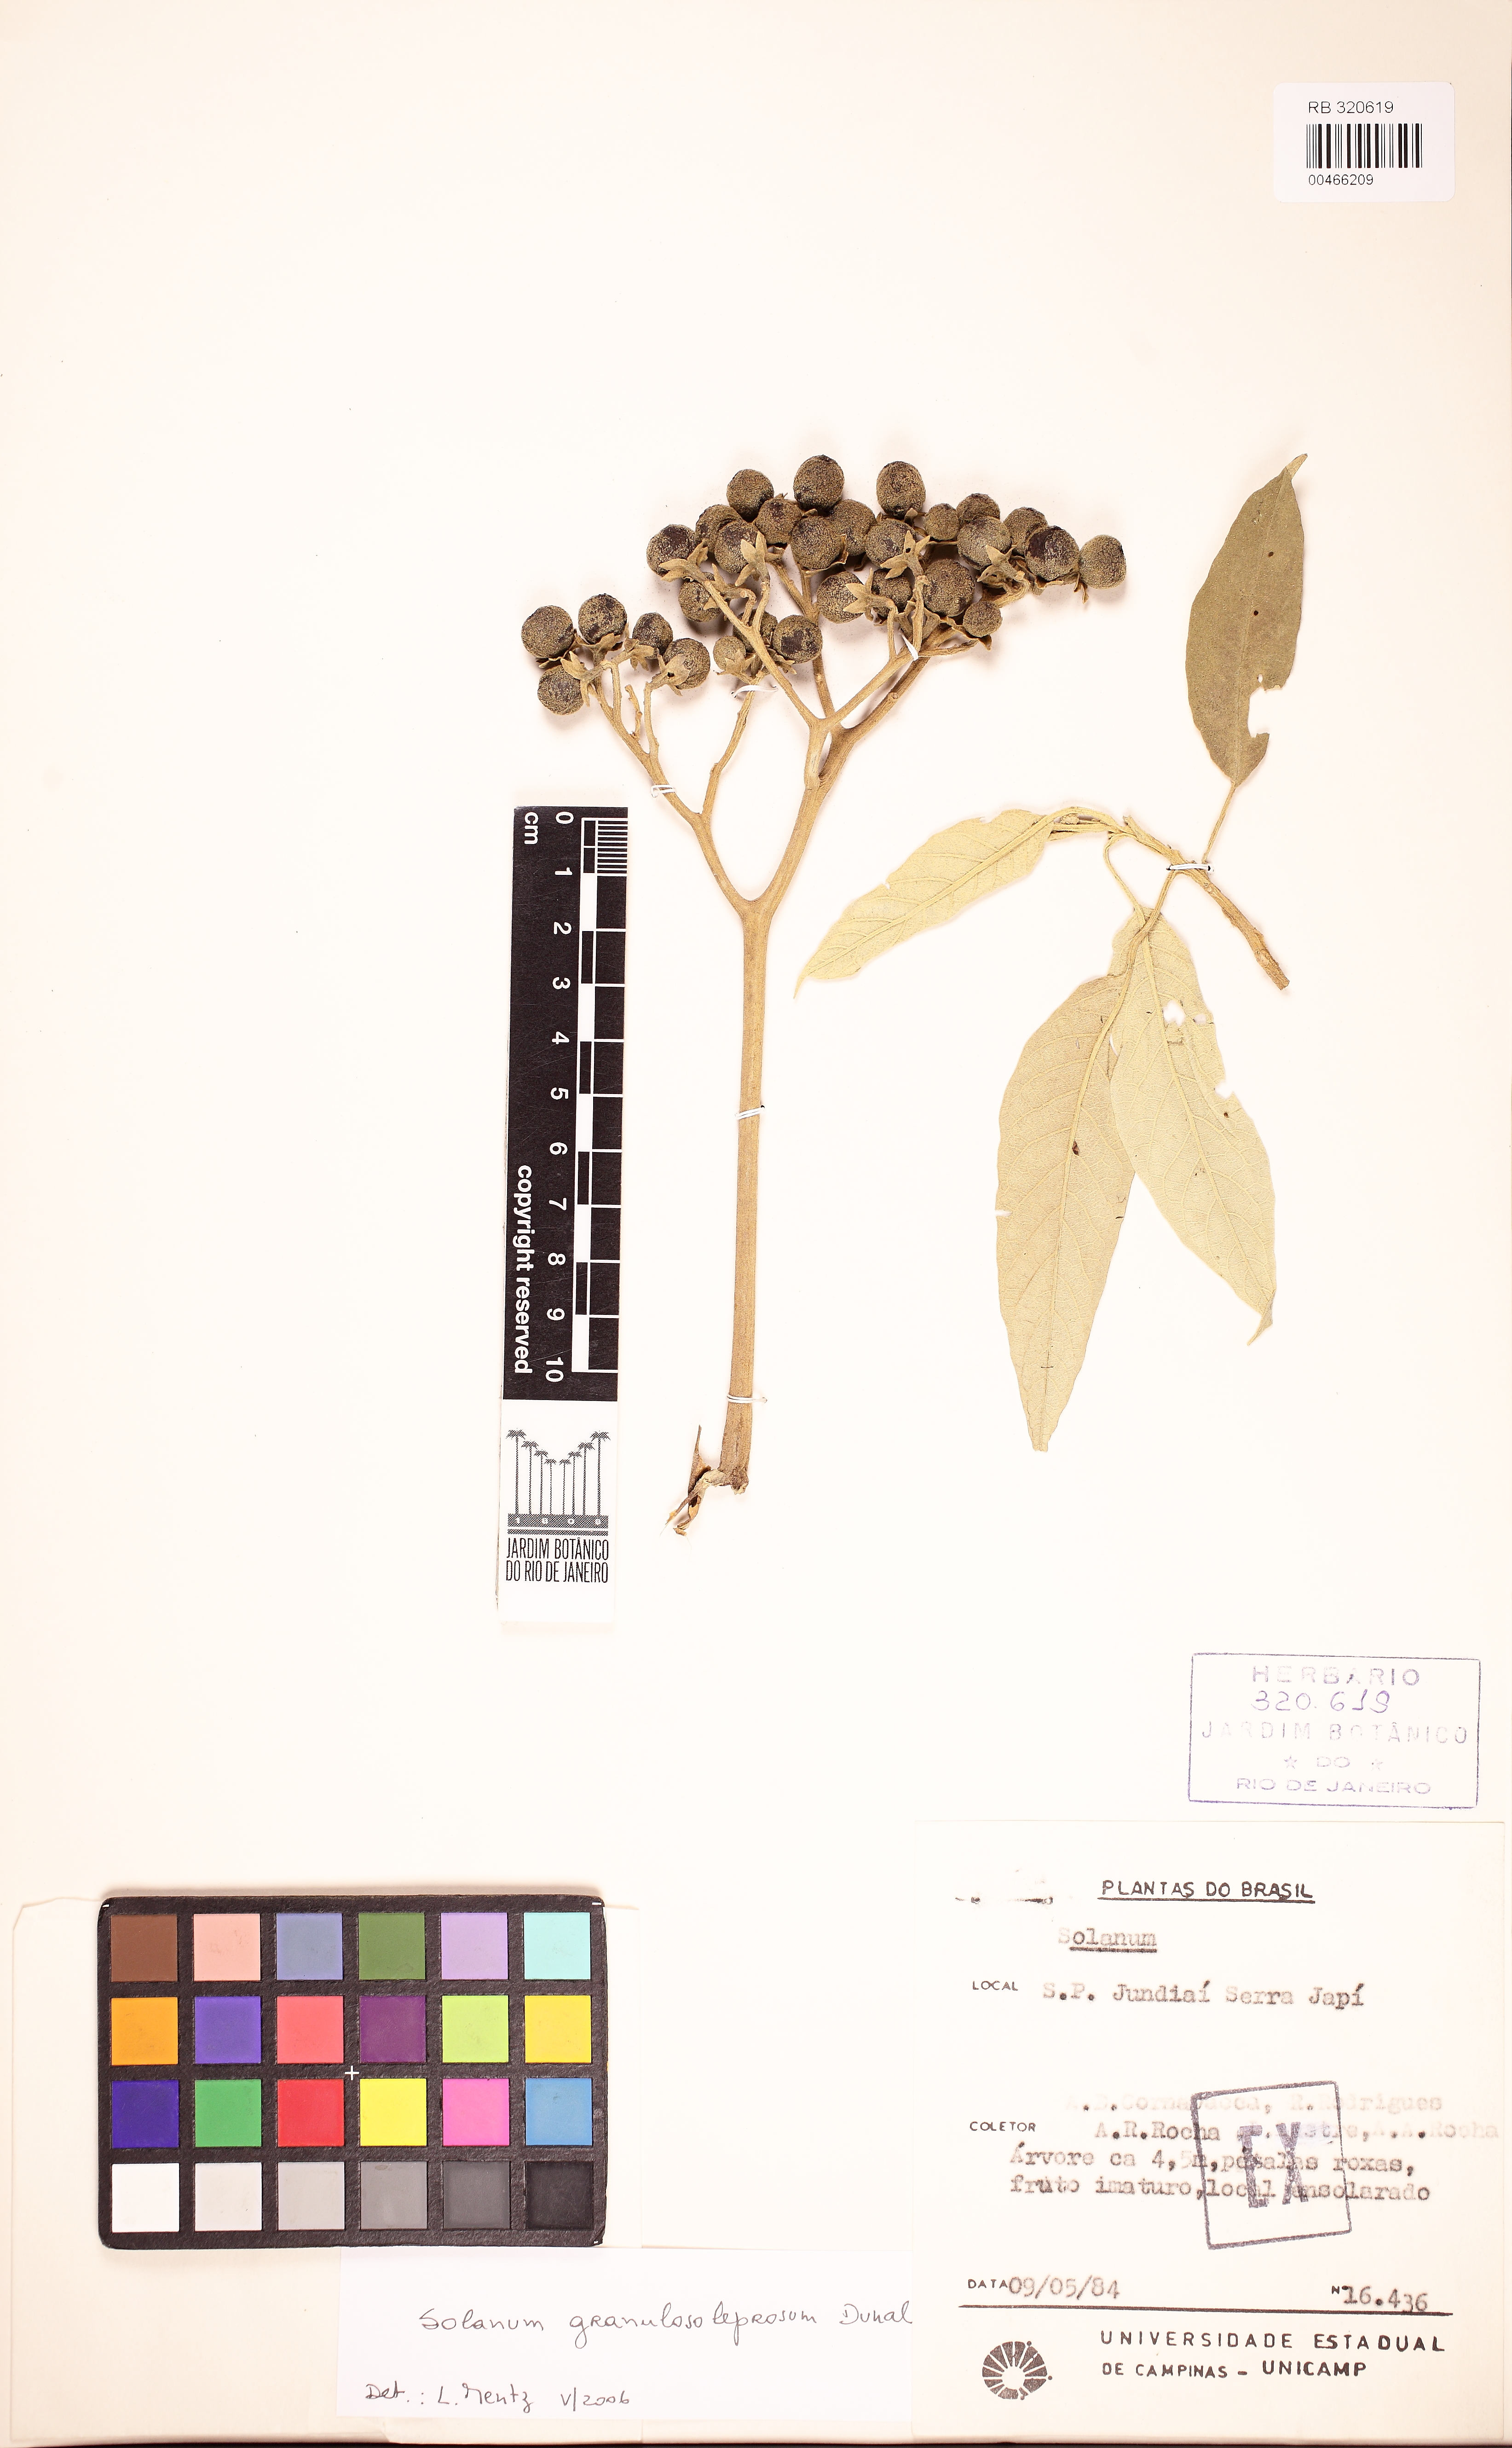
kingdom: Plantae
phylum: Tracheophyta
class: Magnoliopsida
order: Solanales
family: Solanaceae
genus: Solanum
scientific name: Solanum granulosoleprosum
